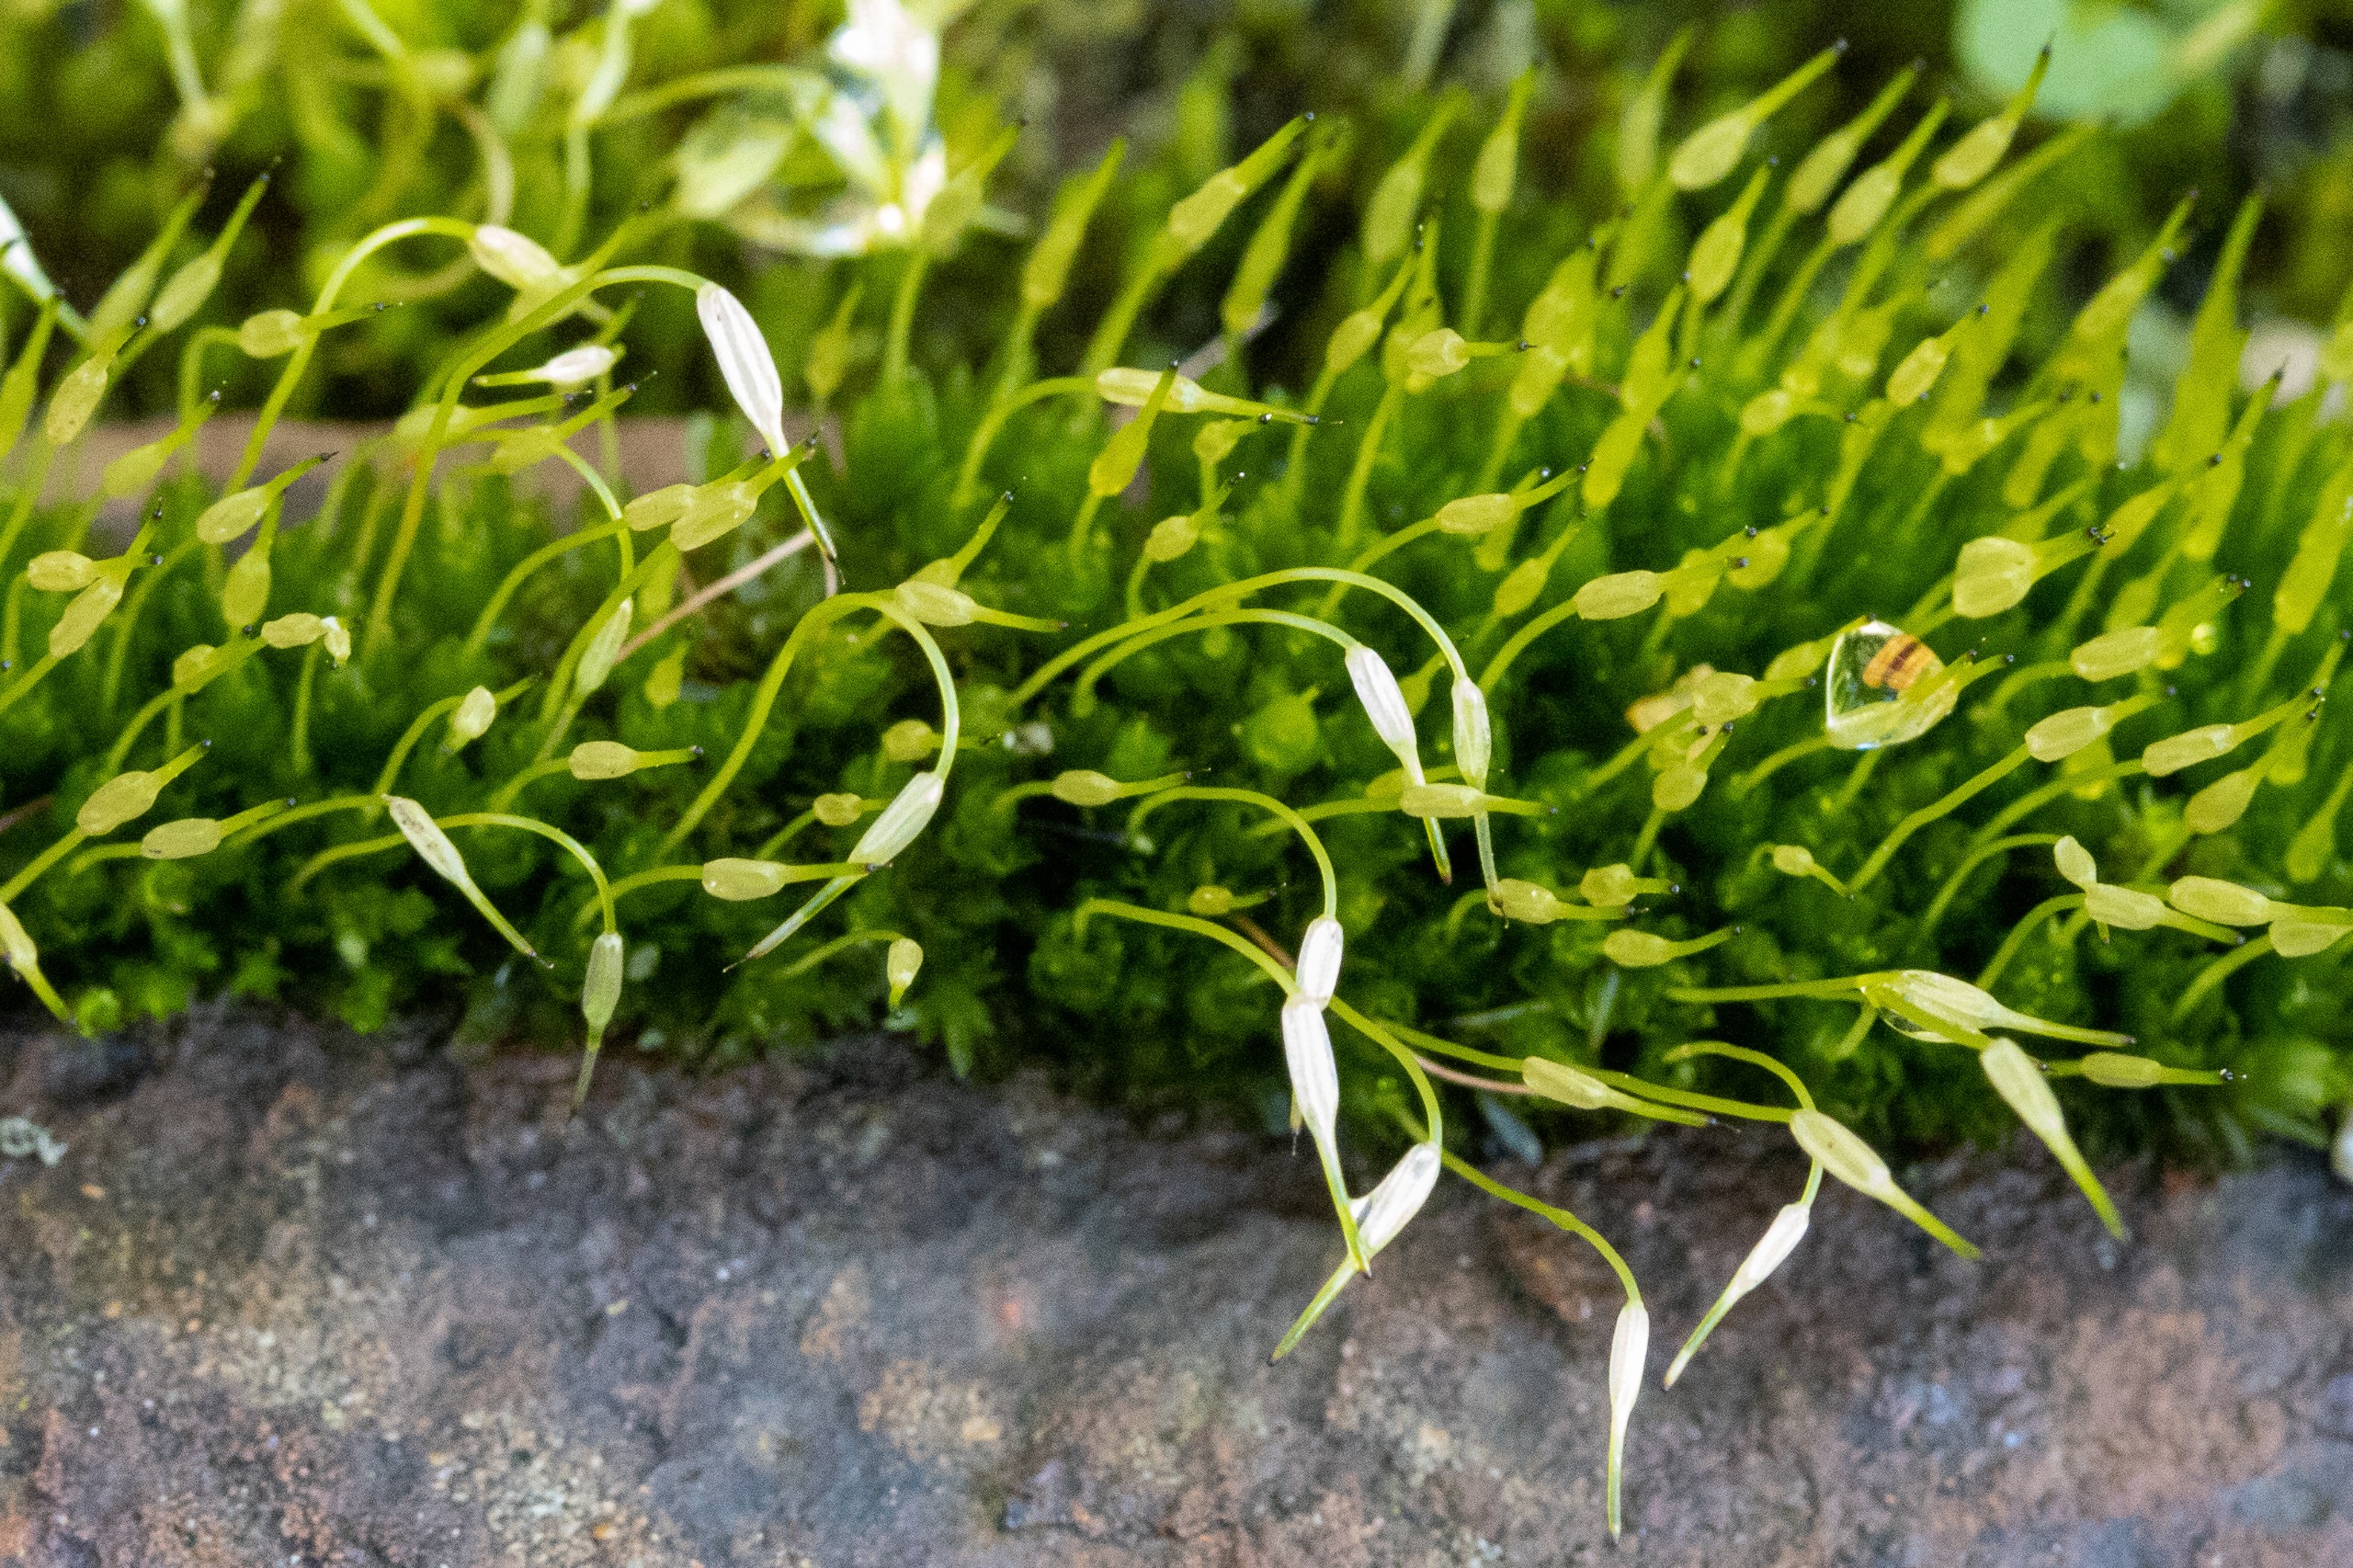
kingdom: Plantae
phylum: Bryophyta
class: Bryopsida
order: Funariales
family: Funariaceae
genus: Funaria
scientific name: Funaria hygrometrica
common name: Almindelig snobørste
